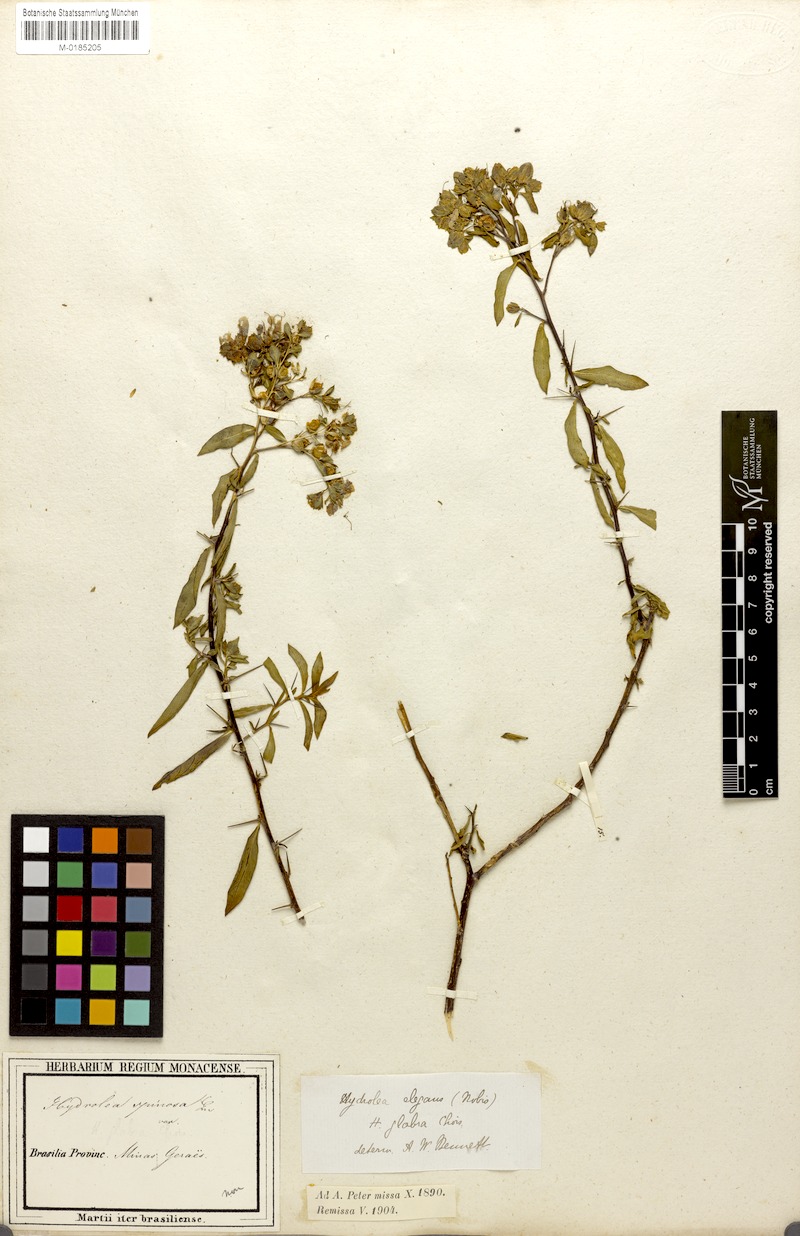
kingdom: Plantae
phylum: Tracheophyta
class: Magnoliopsida
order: Solanales
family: Hydroleaceae
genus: Hydrolea
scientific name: Hydrolea spinosa
